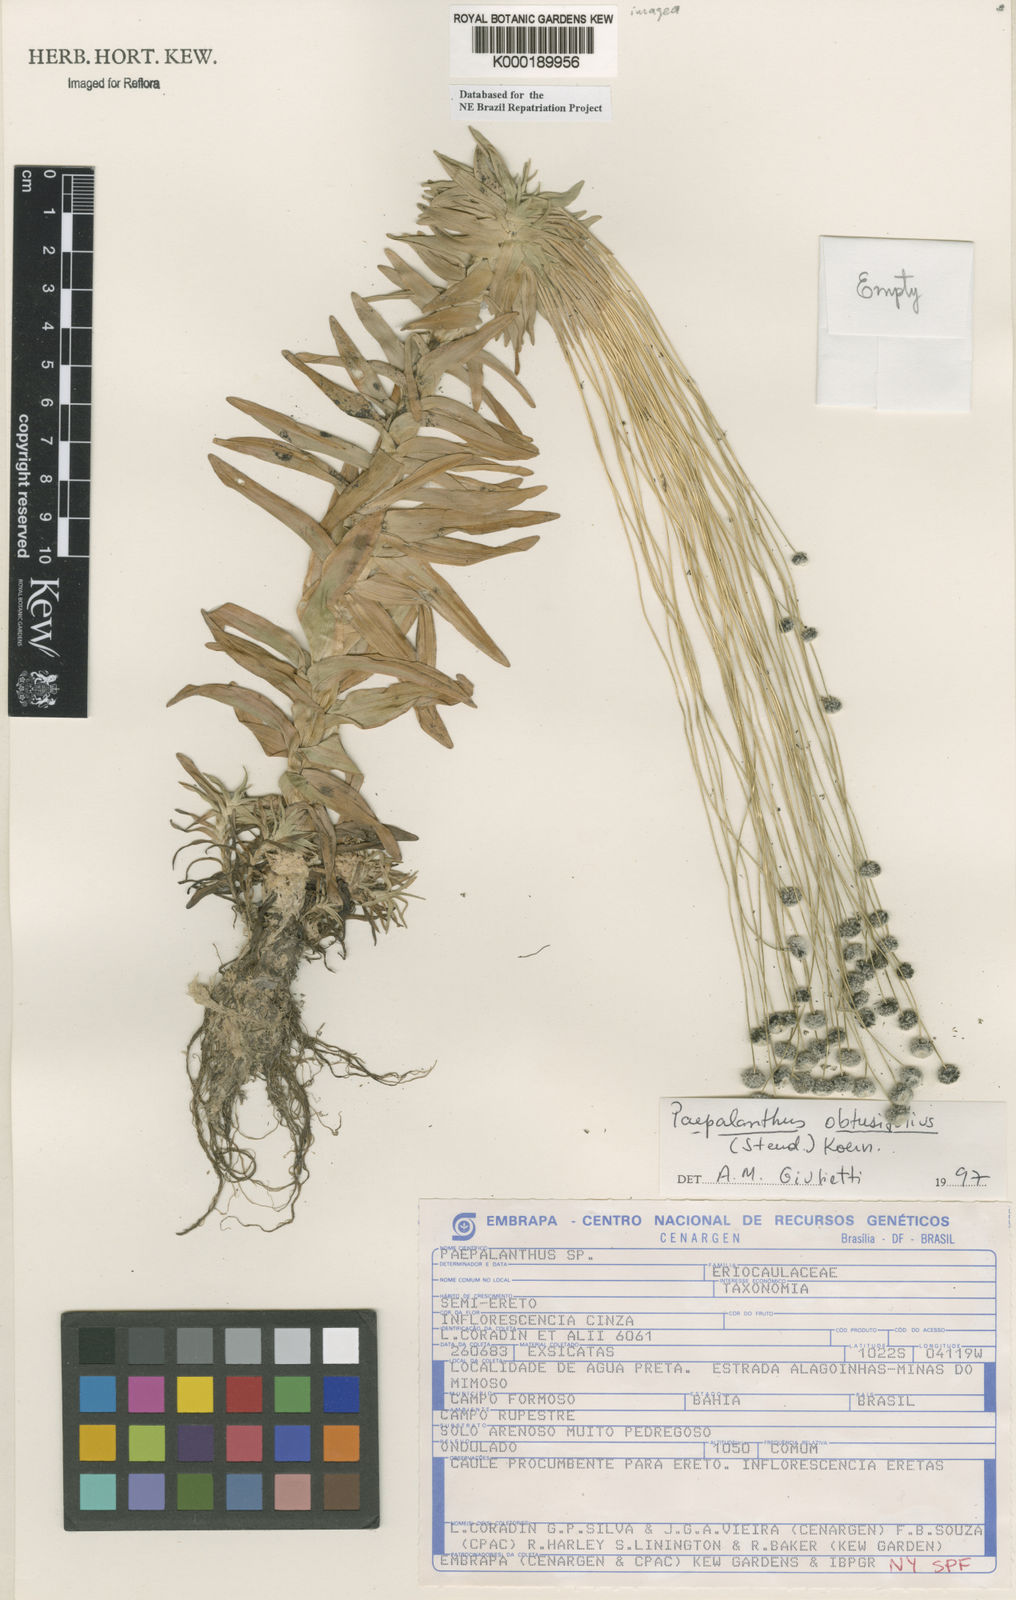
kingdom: Plantae
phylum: Tracheophyta
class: Liliopsida
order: Poales
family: Eriocaulaceae
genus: Paepalanthus
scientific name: Paepalanthus
